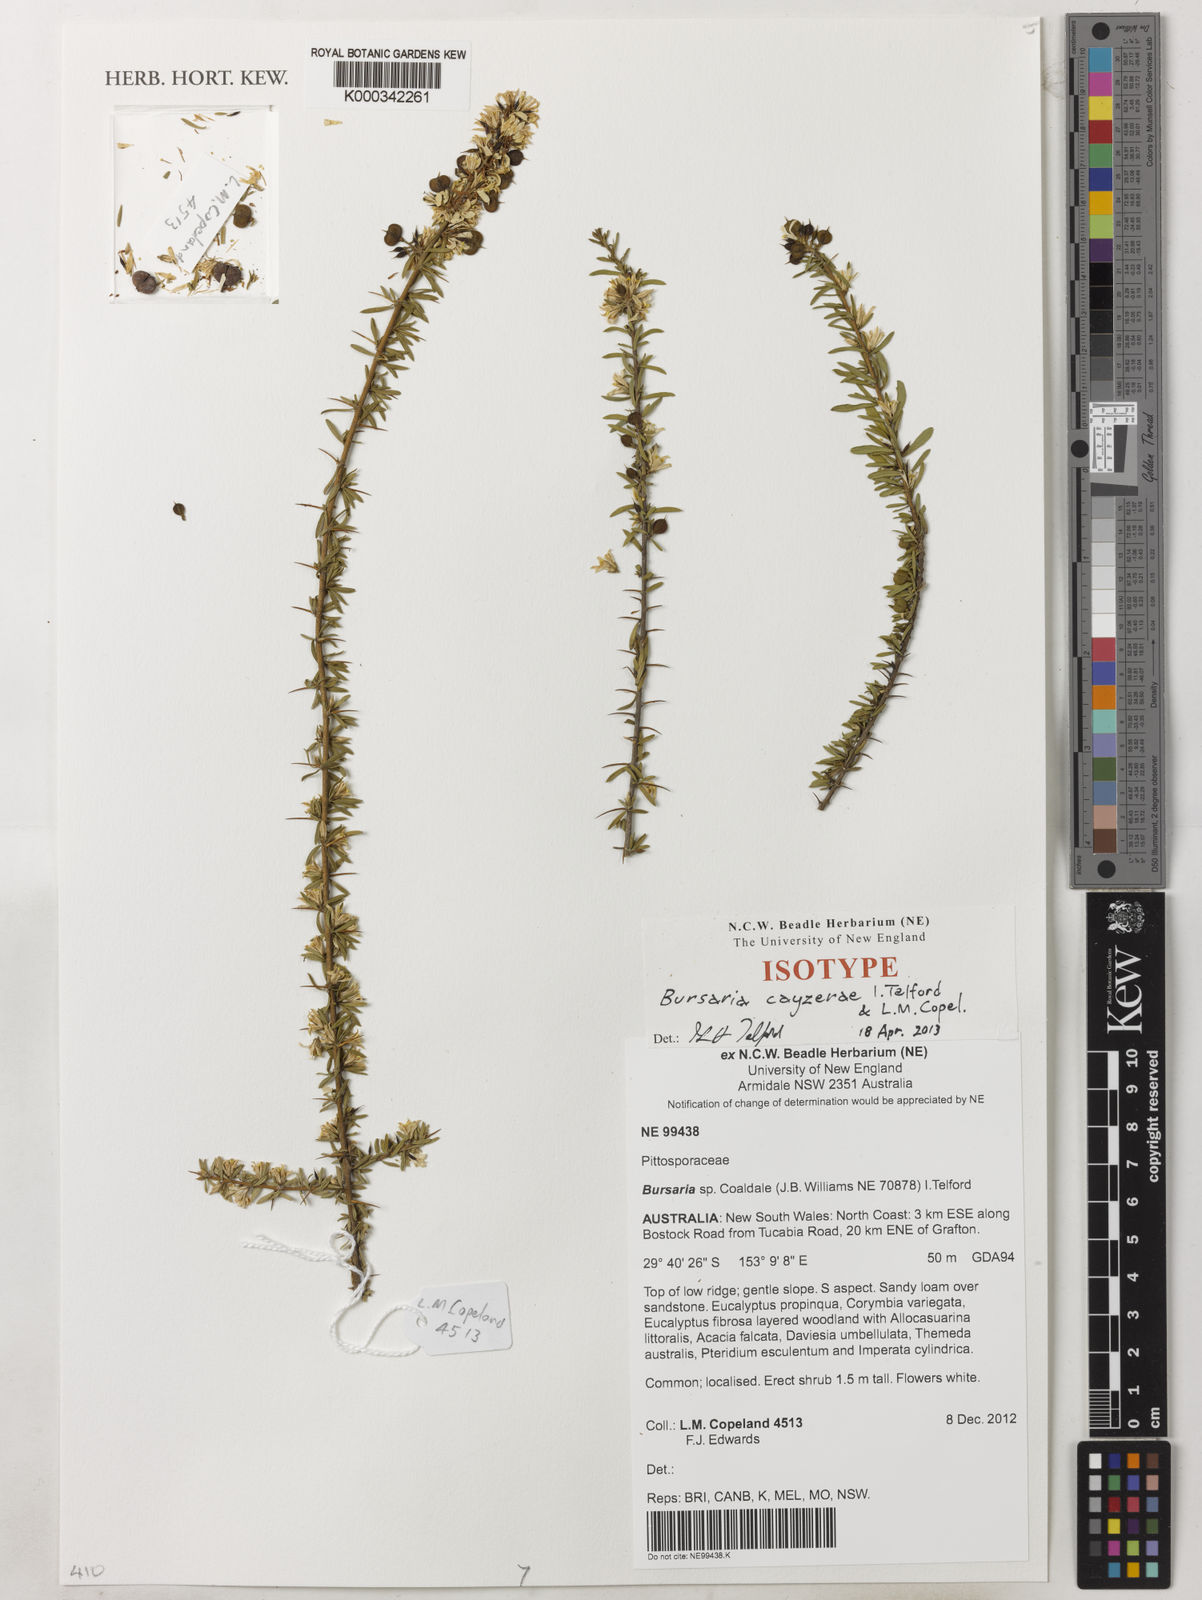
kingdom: Plantae
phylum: Tracheophyta
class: Magnoliopsida
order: Apiales
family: Pittosporaceae
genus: Bursaria
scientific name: Bursaria cayzerae
